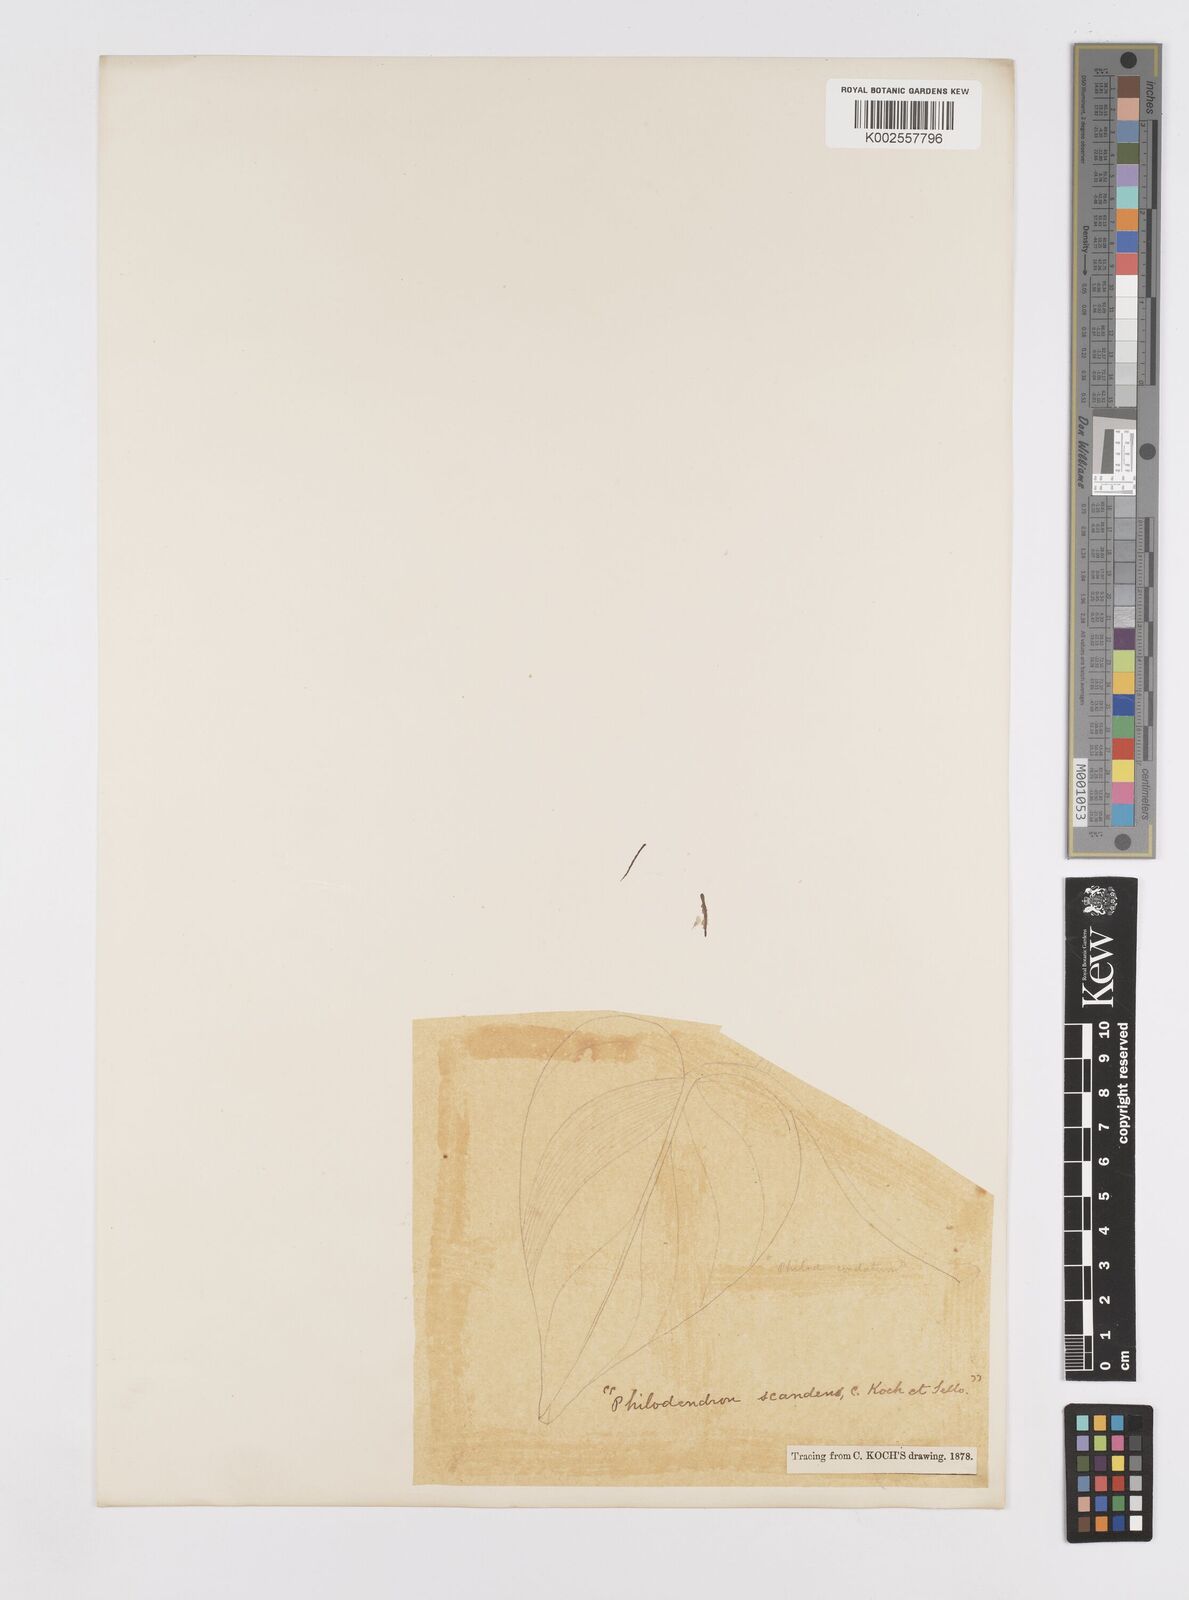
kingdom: Plantae
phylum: Tracheophyta
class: Liliopsida
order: Alismatales
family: Araceae
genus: Philodendron
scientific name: Philodendron hederaceum
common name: Vilevine
